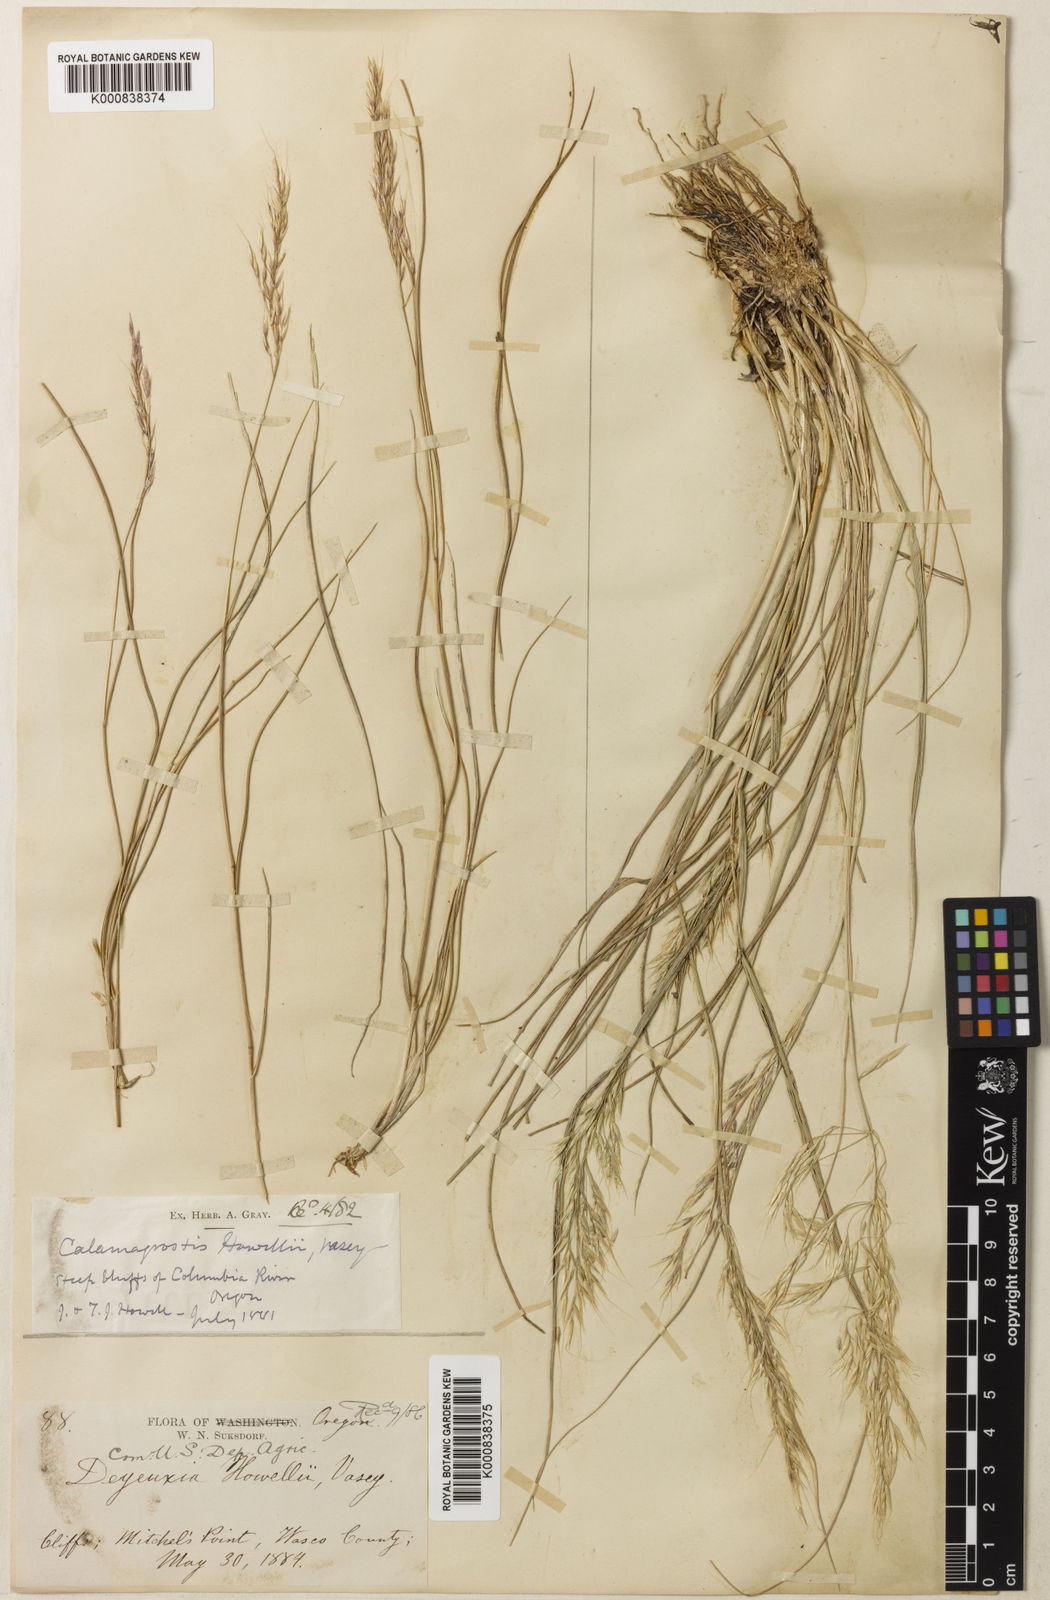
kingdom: Plantae
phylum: Tracheophyta
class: Liliopsida
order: Poales
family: Poaceae
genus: Calamagrostis
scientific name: Calamagrostis howellii
